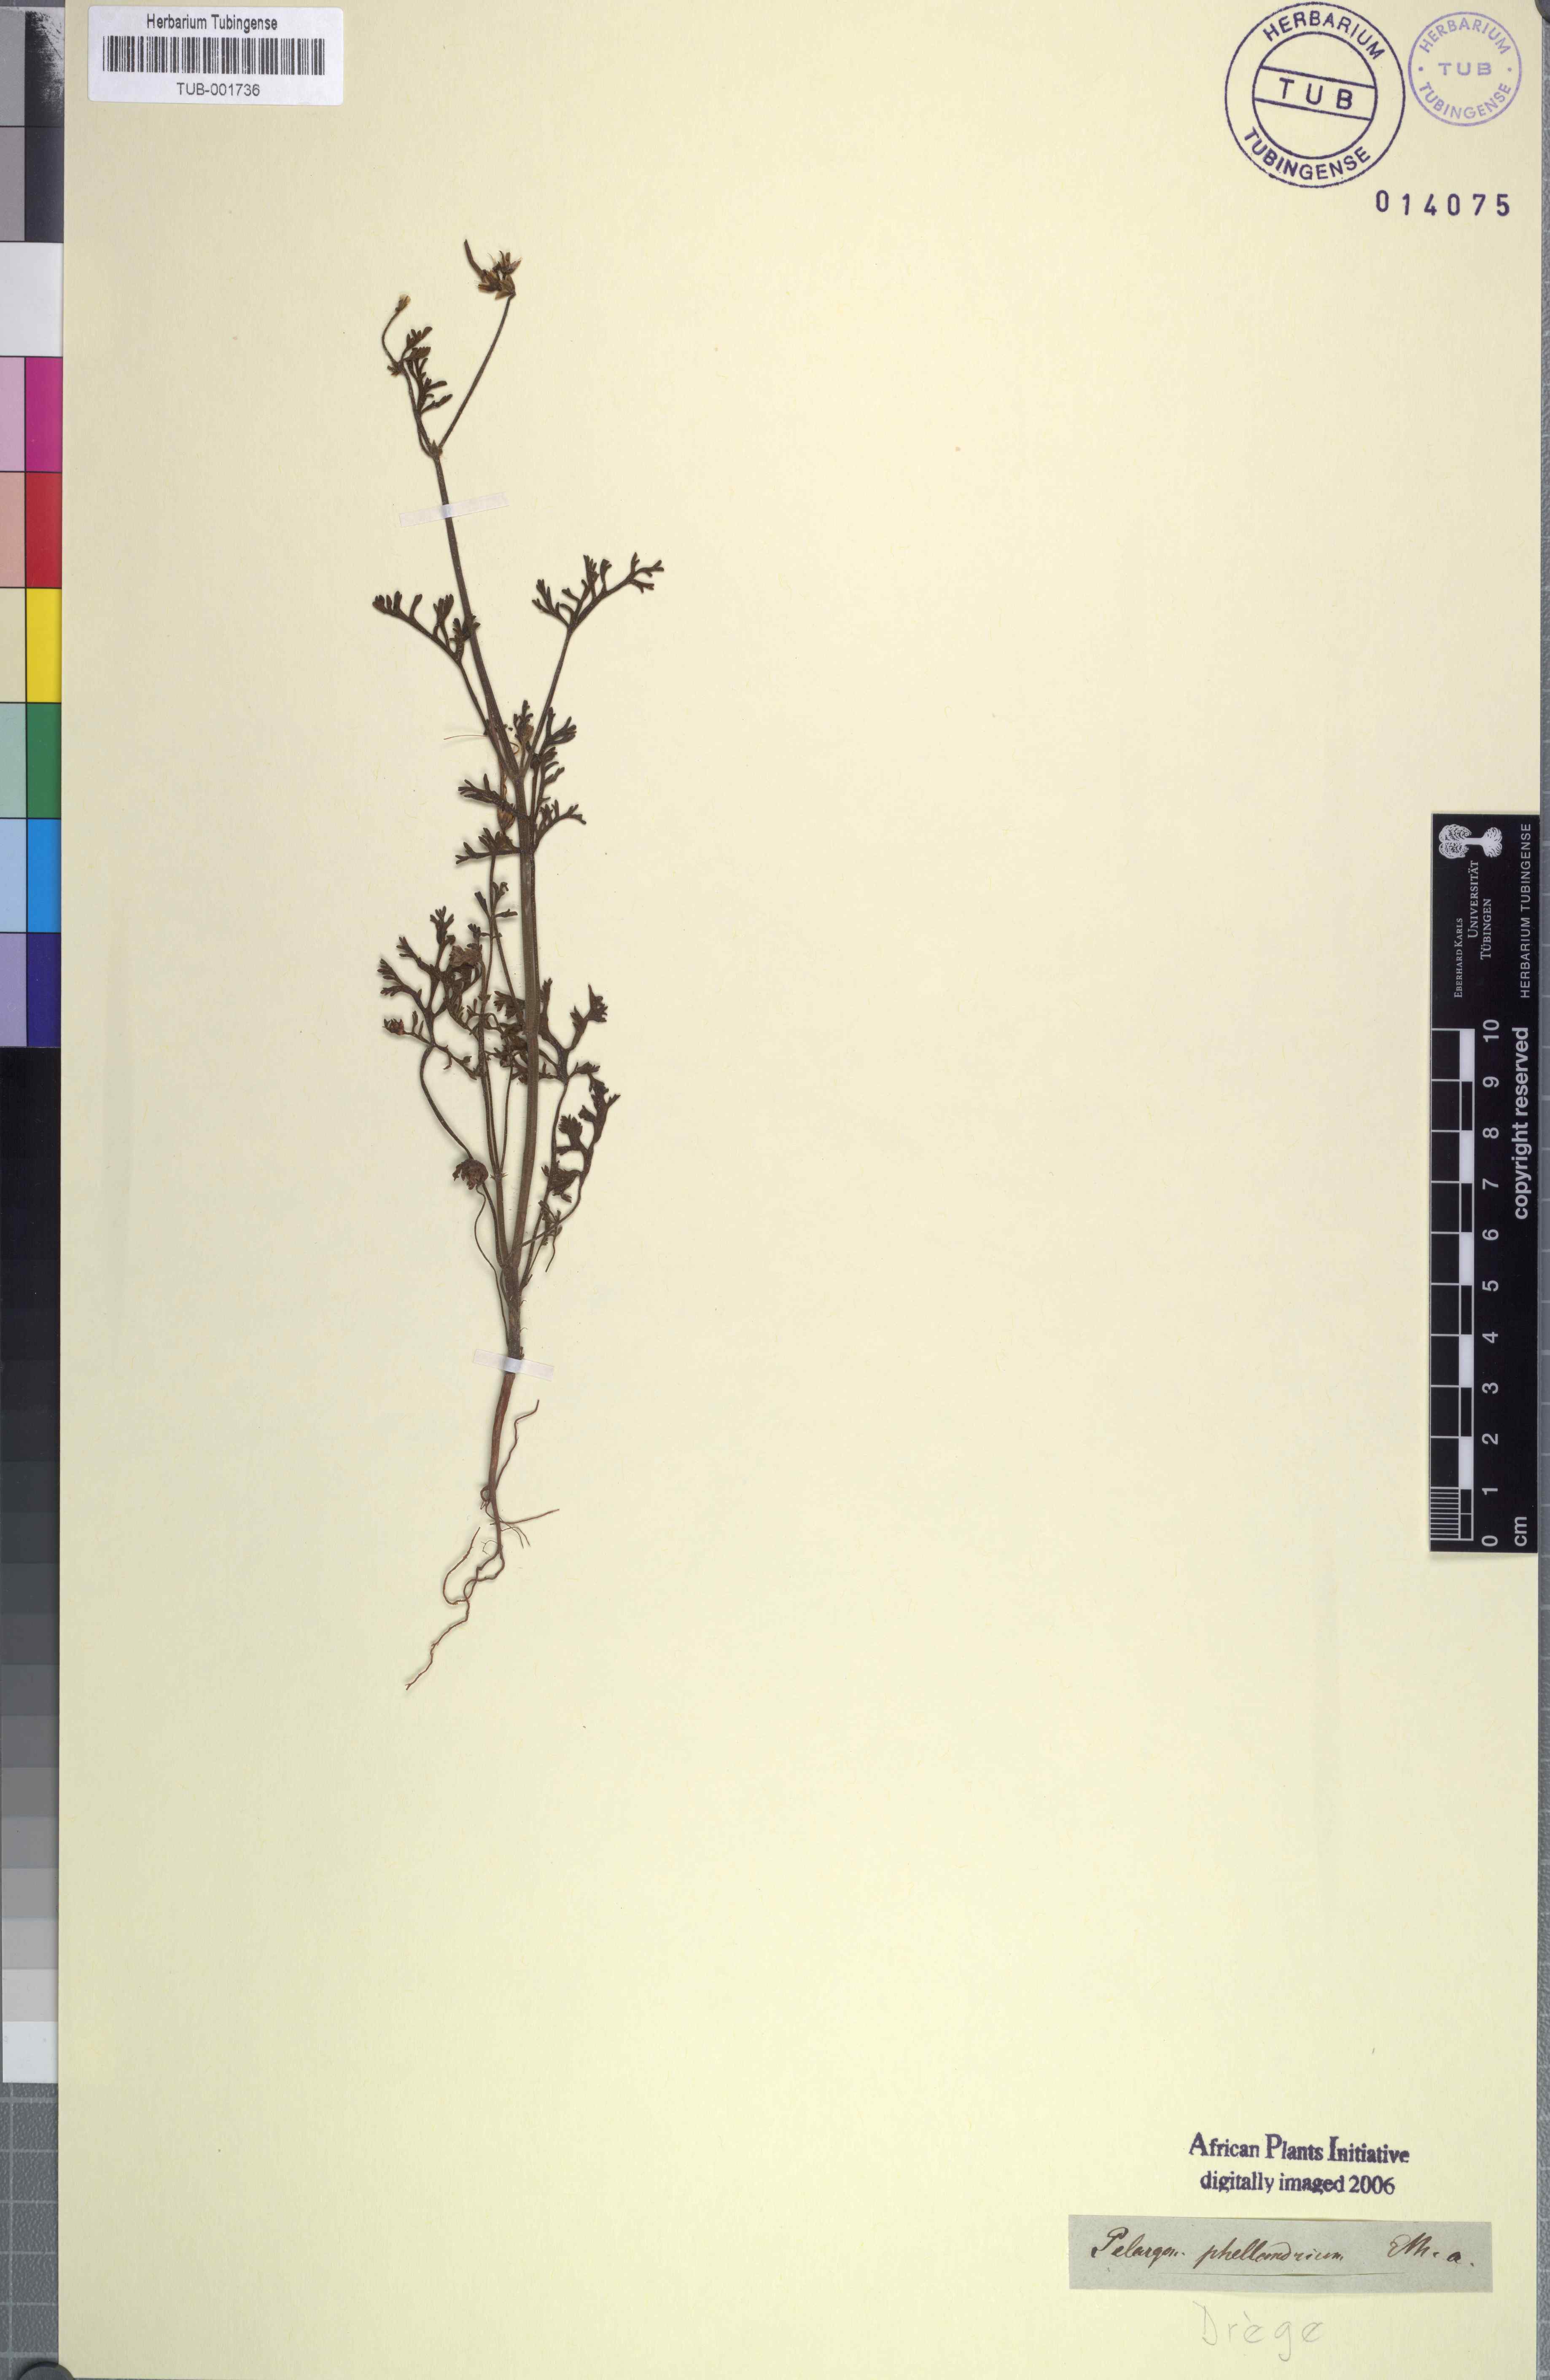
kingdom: Plantae
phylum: Tracheophyta
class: Magnoliopsida
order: Geraniales
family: Geraniaceae
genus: Pelargonium
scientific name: Pelargonium senecioides
